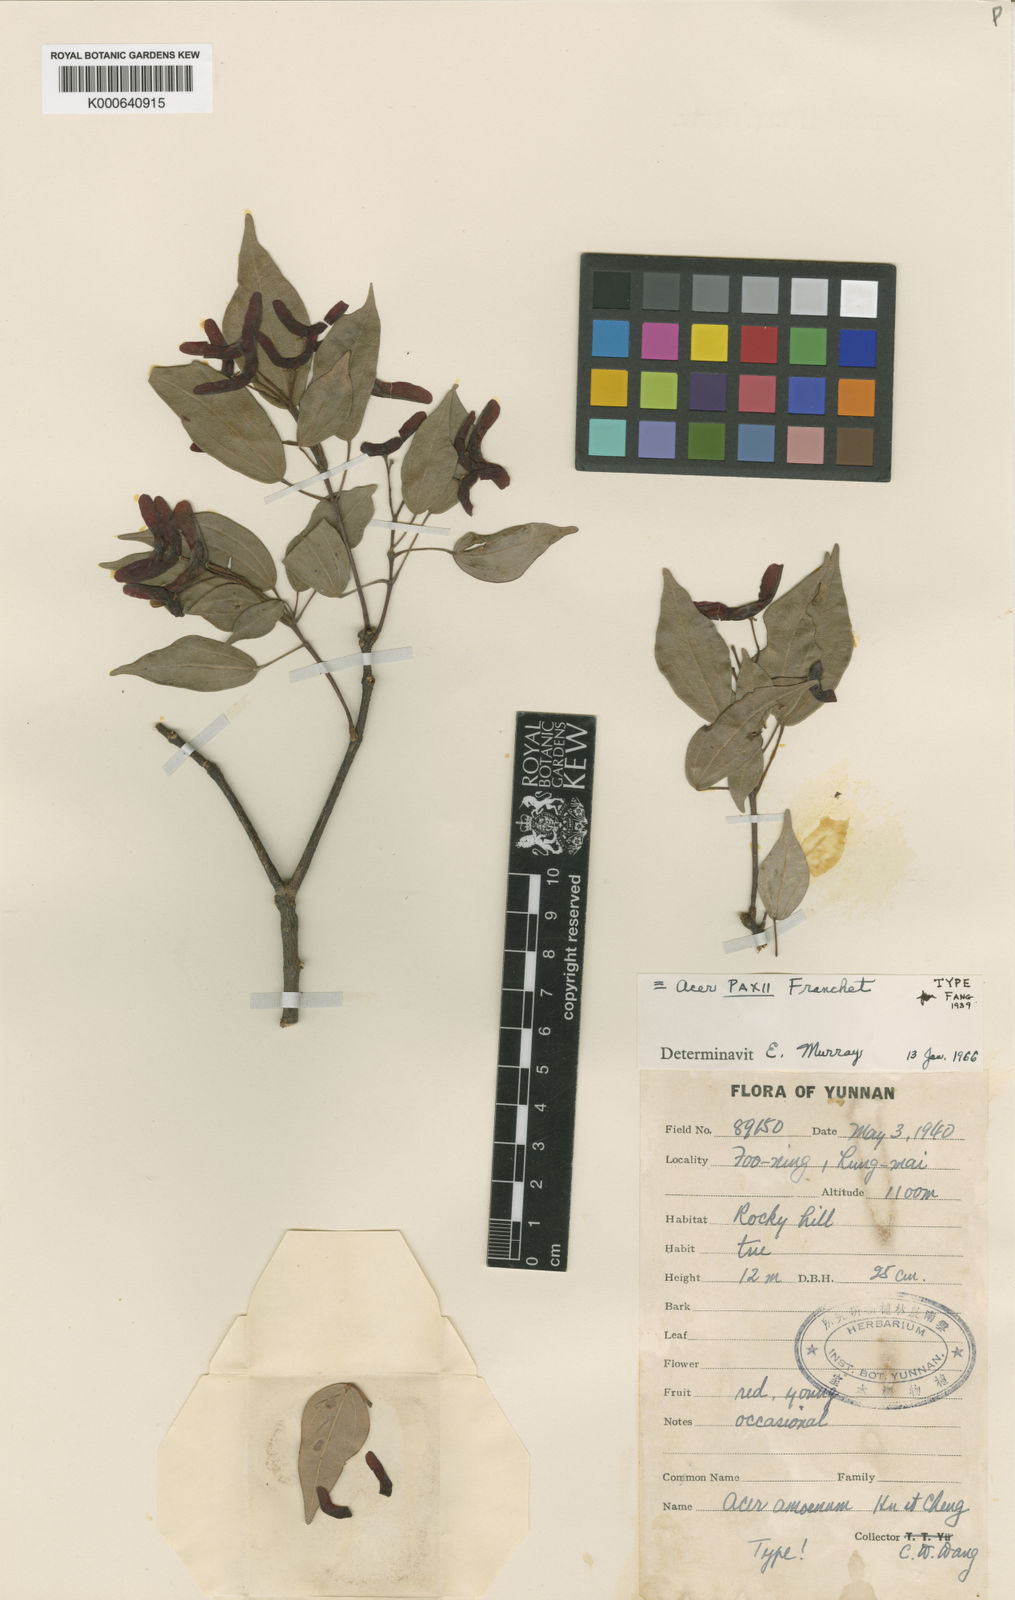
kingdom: Plantae
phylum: Tracheophyta
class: Magnoliopsida
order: Sapindales
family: Sapindaceae
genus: Acer
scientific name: Acer paxii
